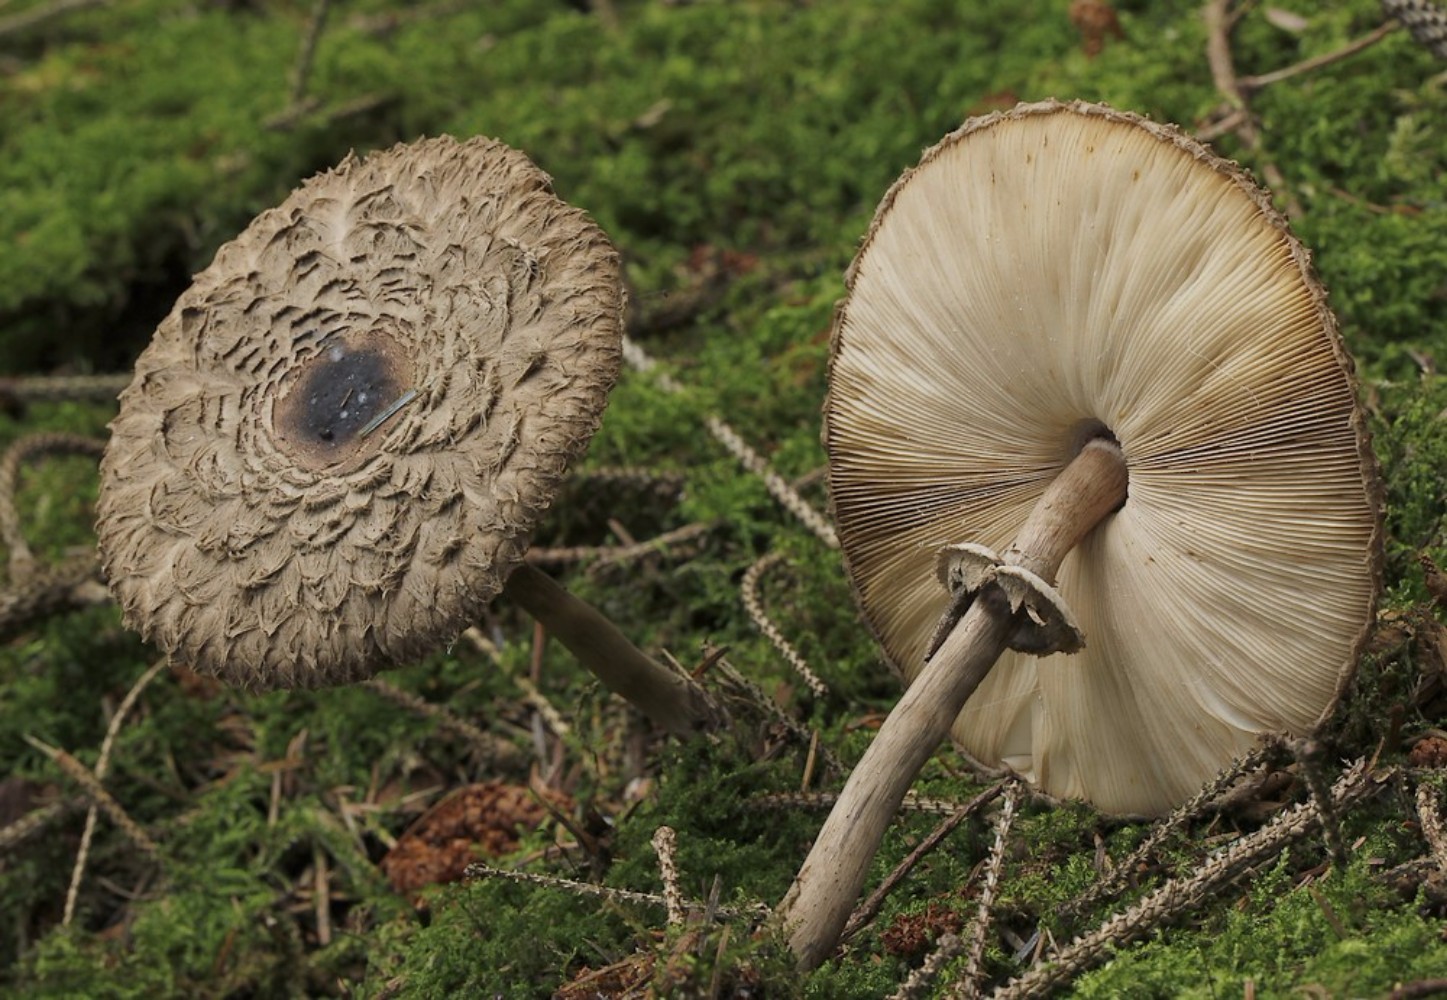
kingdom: Fungi
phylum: Basidiomycota
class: Agaricomycetes
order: Agaricales
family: Agaricaceae
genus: Chlorophyllum
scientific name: Chlorophyllum olivieri
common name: almindelig rabarberhat
